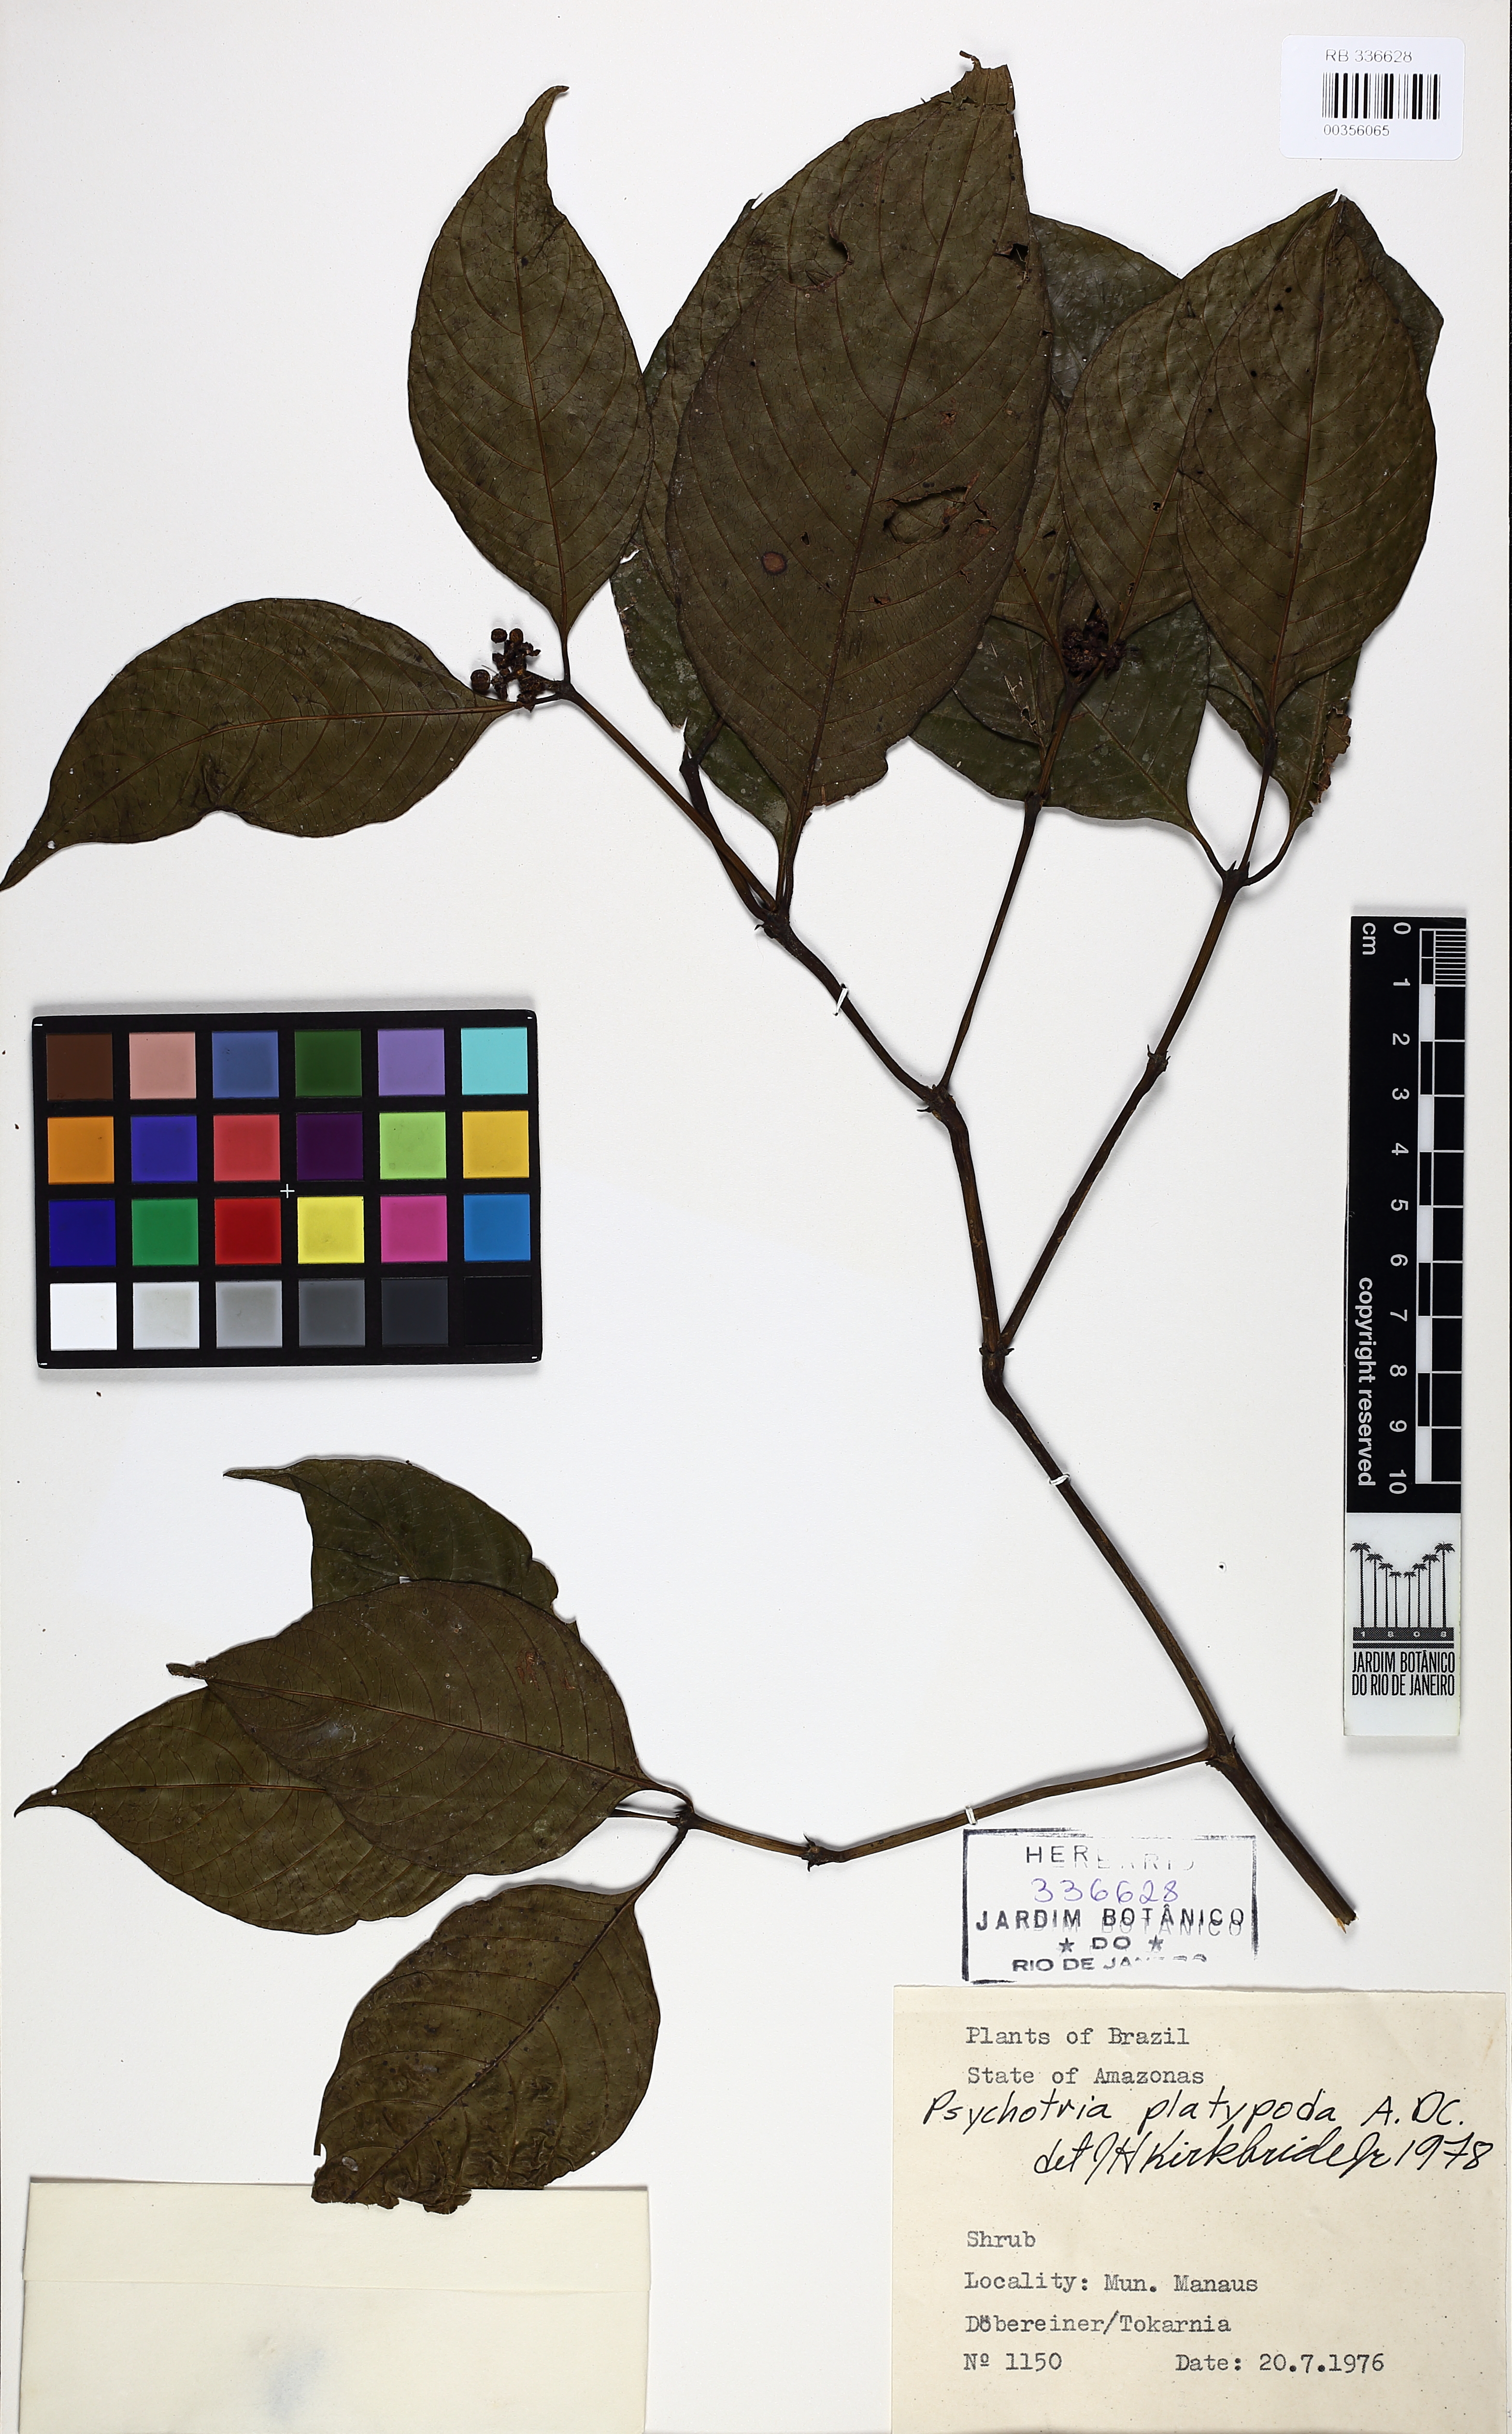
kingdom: Plantae
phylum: Tracheophyta
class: Magnoliopsida
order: Gentianales
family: Rubiaceae
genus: Palicourea
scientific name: Palicourea hoffmannseggiana
